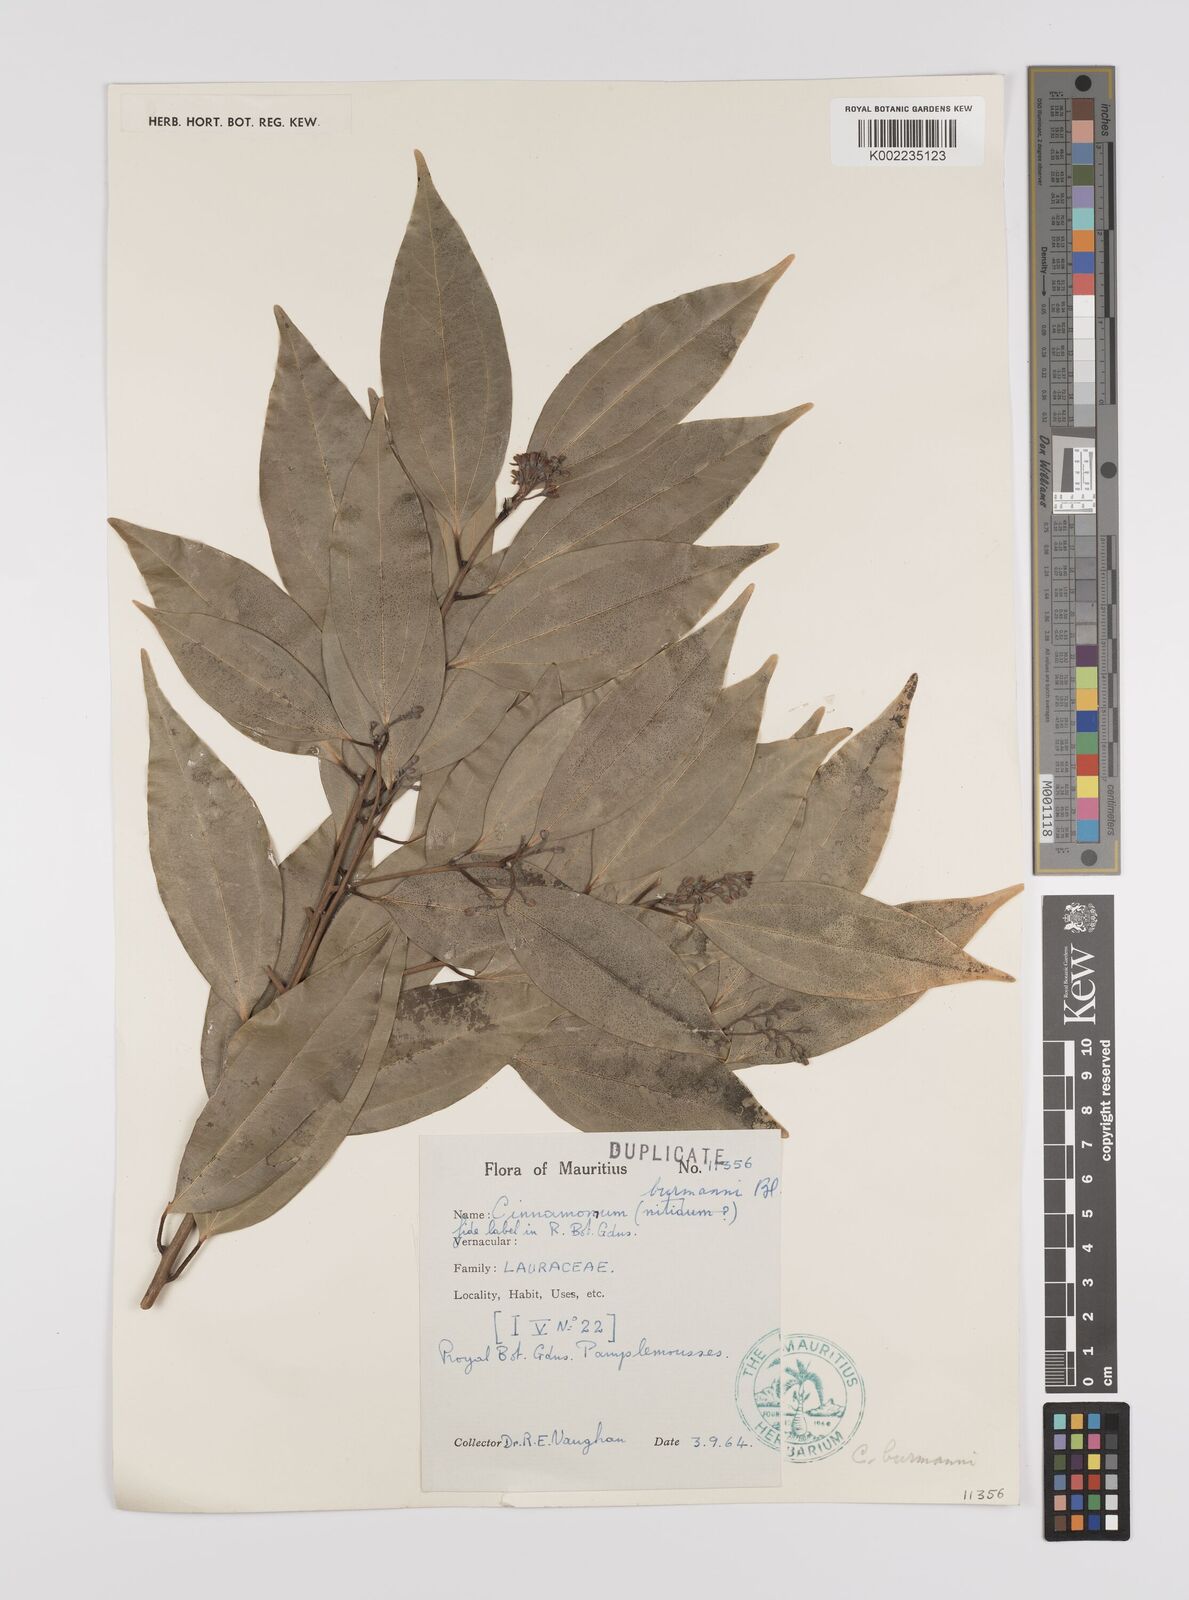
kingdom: Plantae
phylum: Tracheophyta
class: Magnoliopsida
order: Laurales
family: Lauraceae
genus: Cinnamomum
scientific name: Cinnamomum burmanni
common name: Padang cassia
